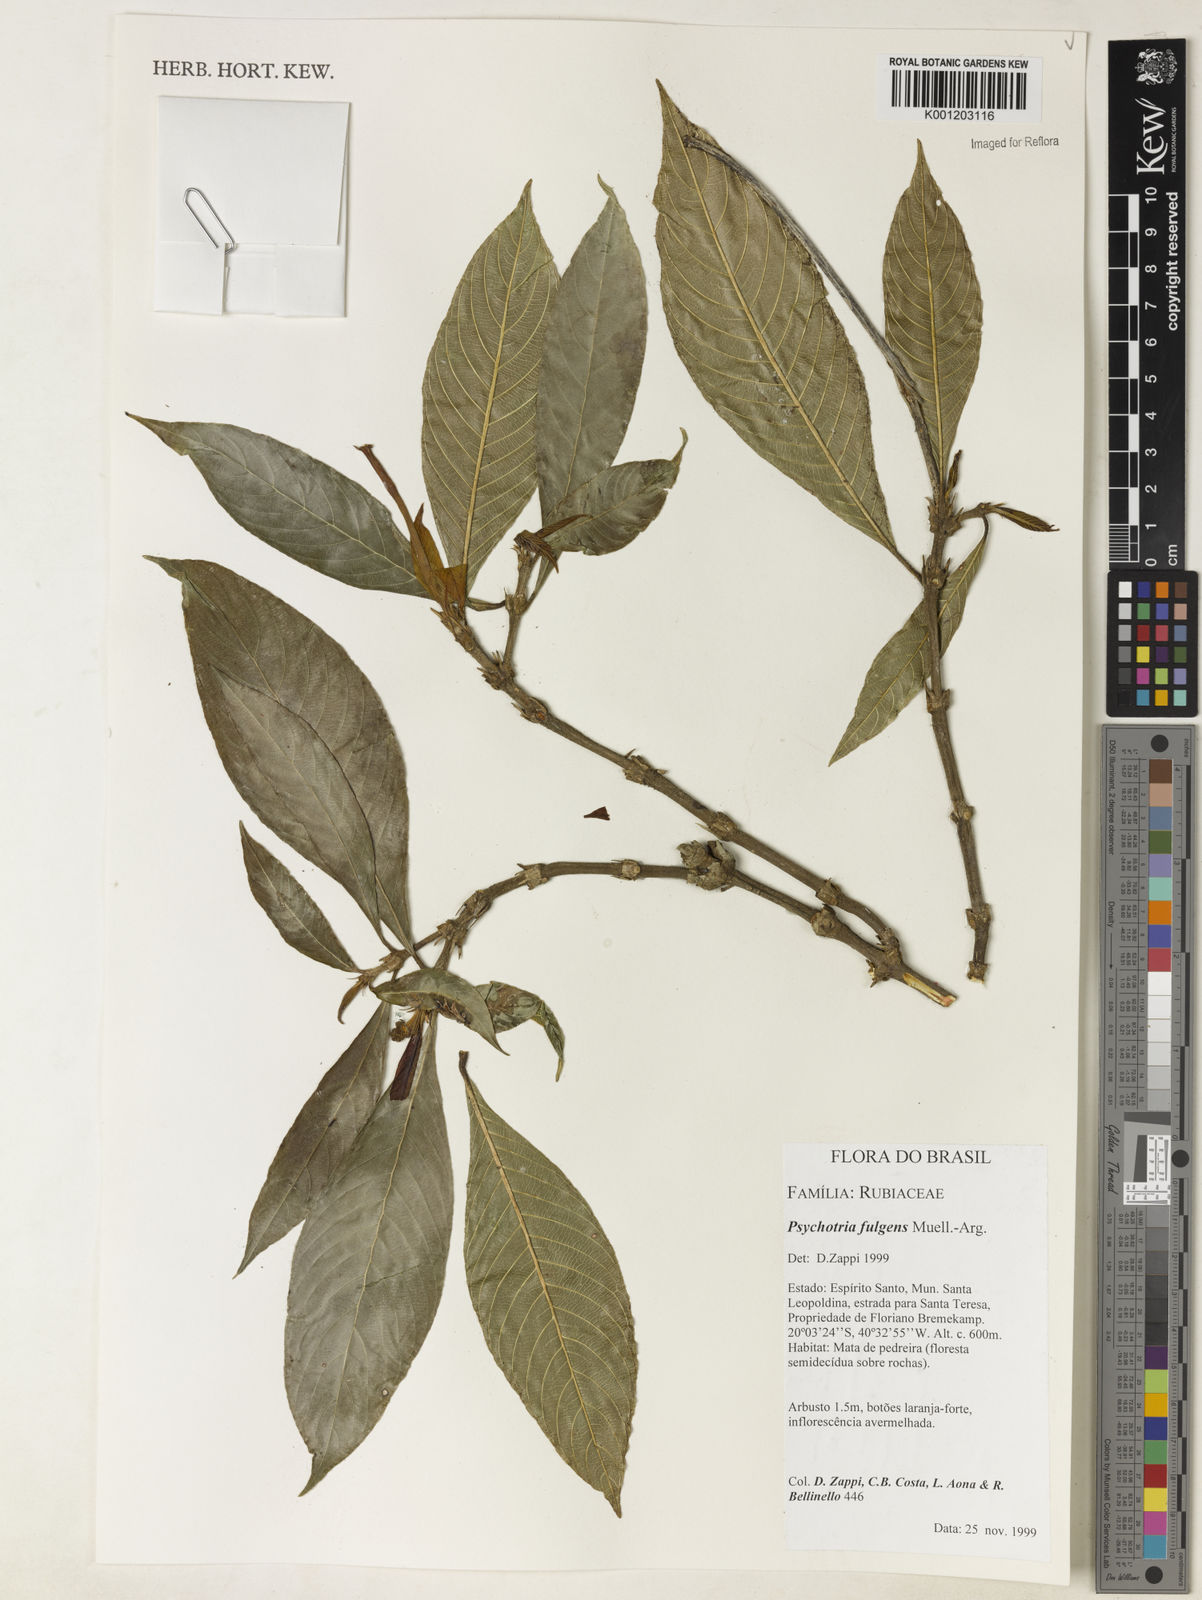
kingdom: Plantae
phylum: Tracheophyta
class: Magnoliopsida
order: Gentianales
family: Rubiaceae
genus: Palicourea
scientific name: Palicourea
